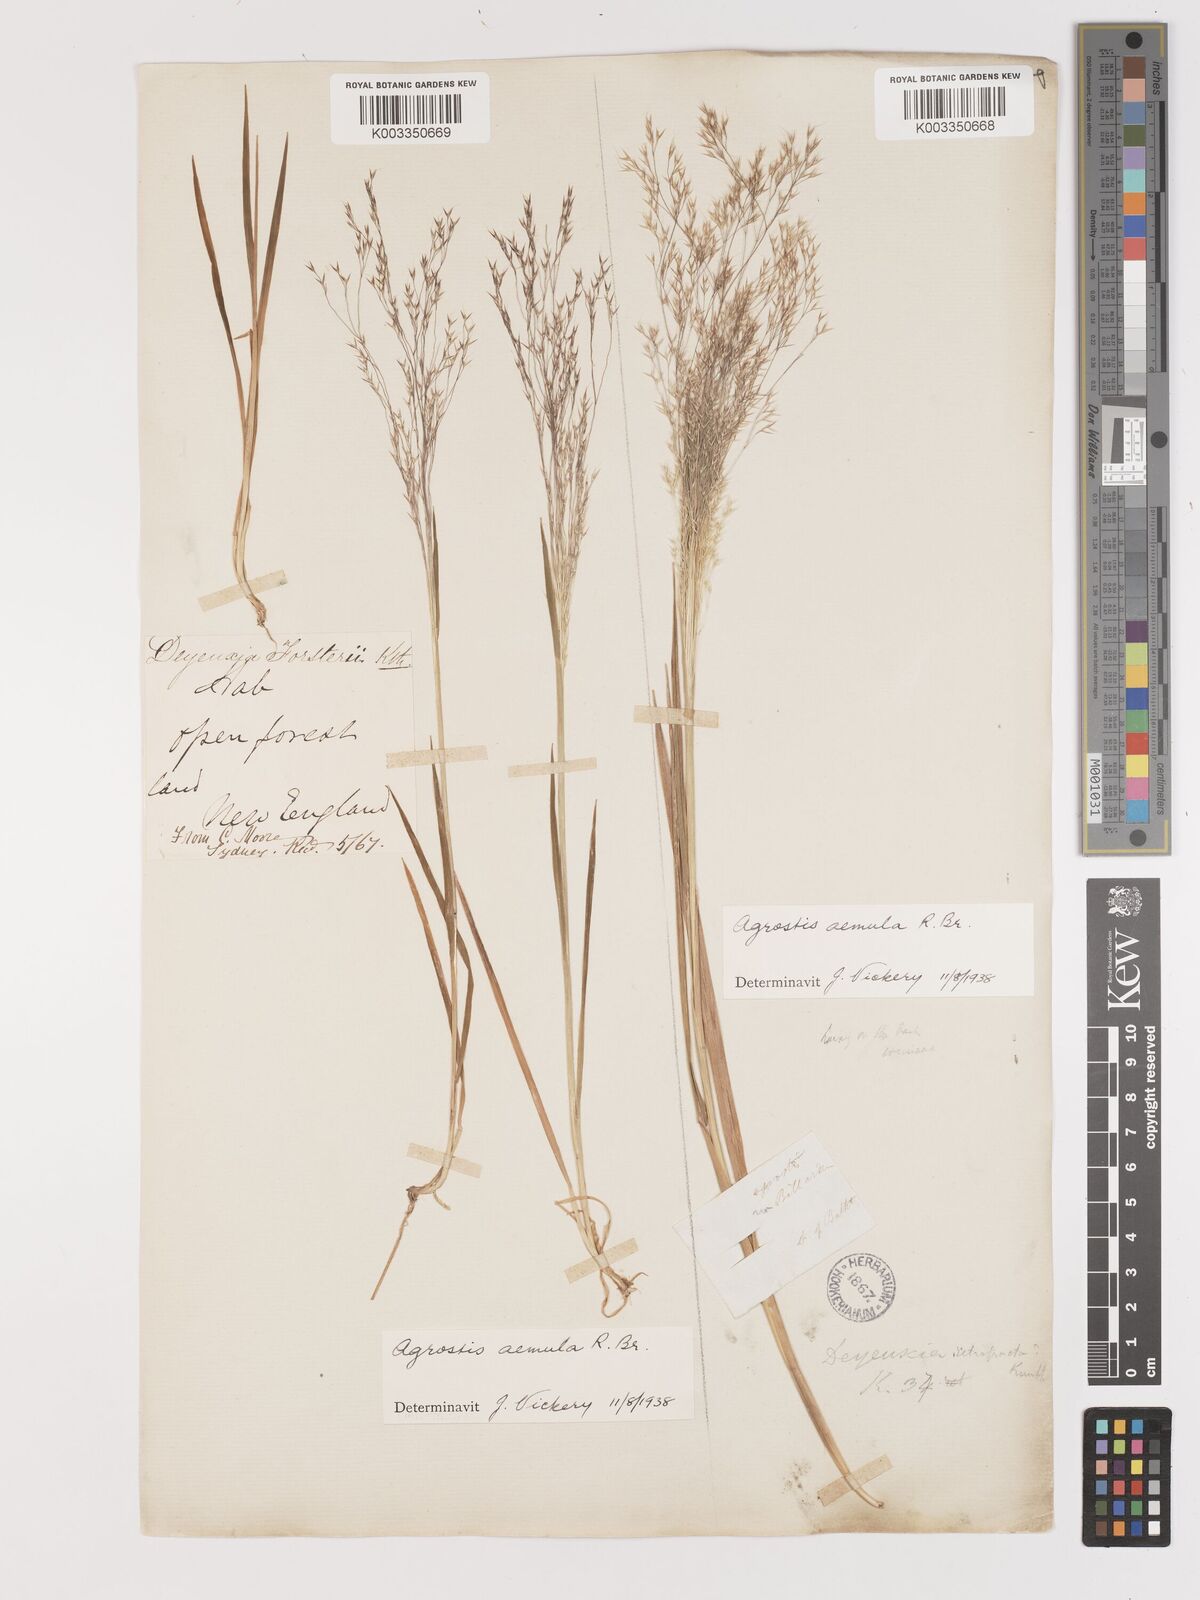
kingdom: Plantae
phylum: Tracheophyta
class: Liliopsida
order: Poales
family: Poaceae
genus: Lachnagrostis
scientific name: Lachnagrostis aemula
